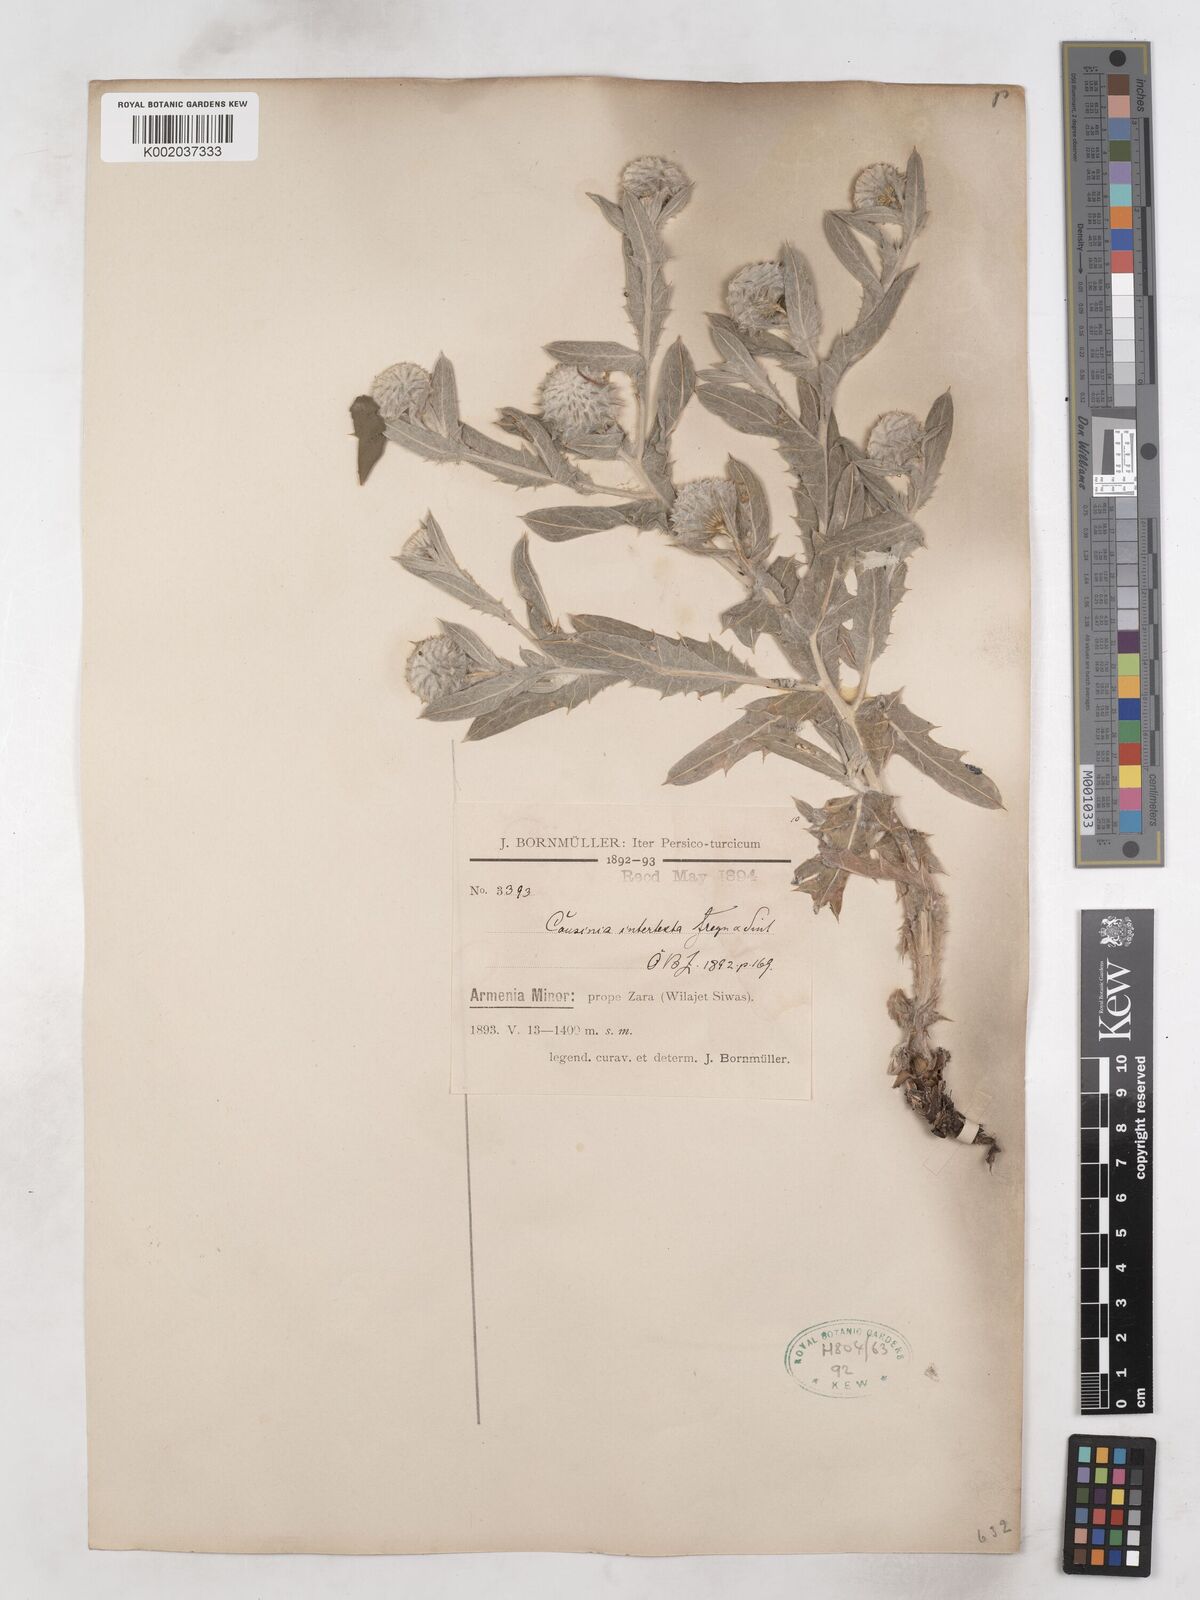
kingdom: Plantae
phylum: Tracheophyta
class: Magnoliopsida
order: Asterales
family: Asteraceae
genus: Cousinia
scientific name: Cousinia intertexta
